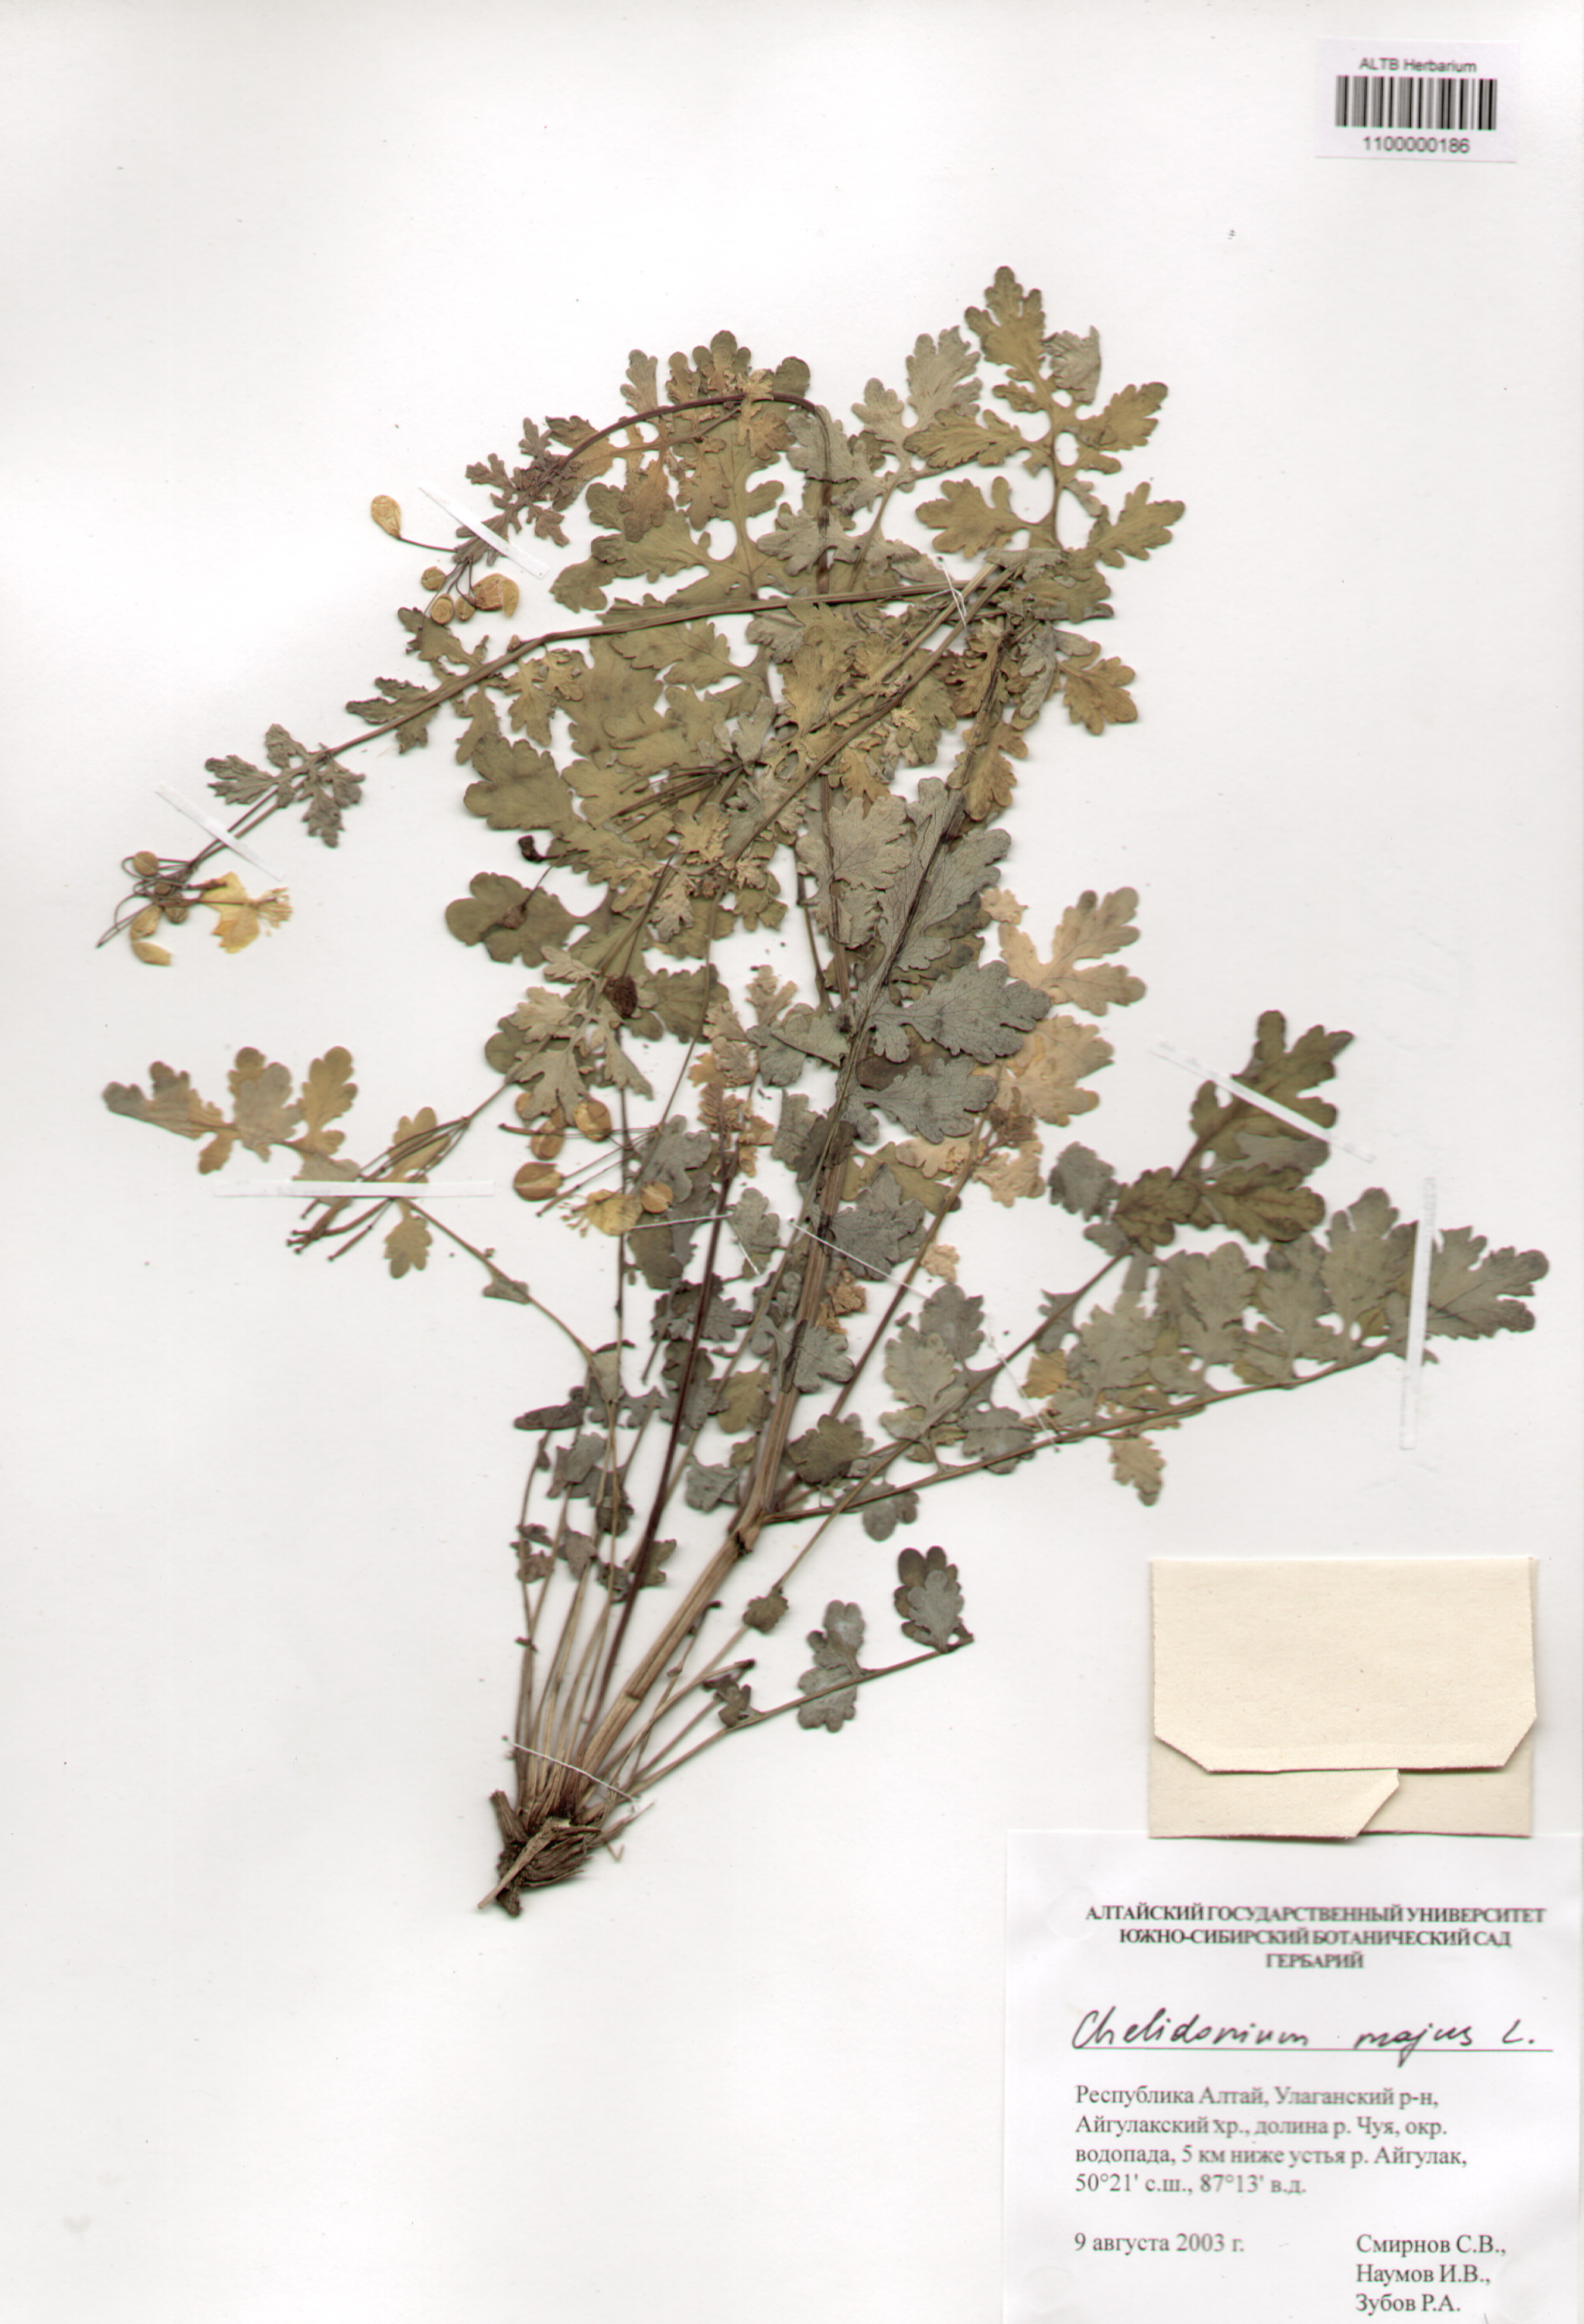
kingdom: Plantae
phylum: Tracheophyta
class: Magnoliopsida
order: Ranunculales
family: Papaveraceae
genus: Chelidonium
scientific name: Chelidonium majus
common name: Greater celandine
